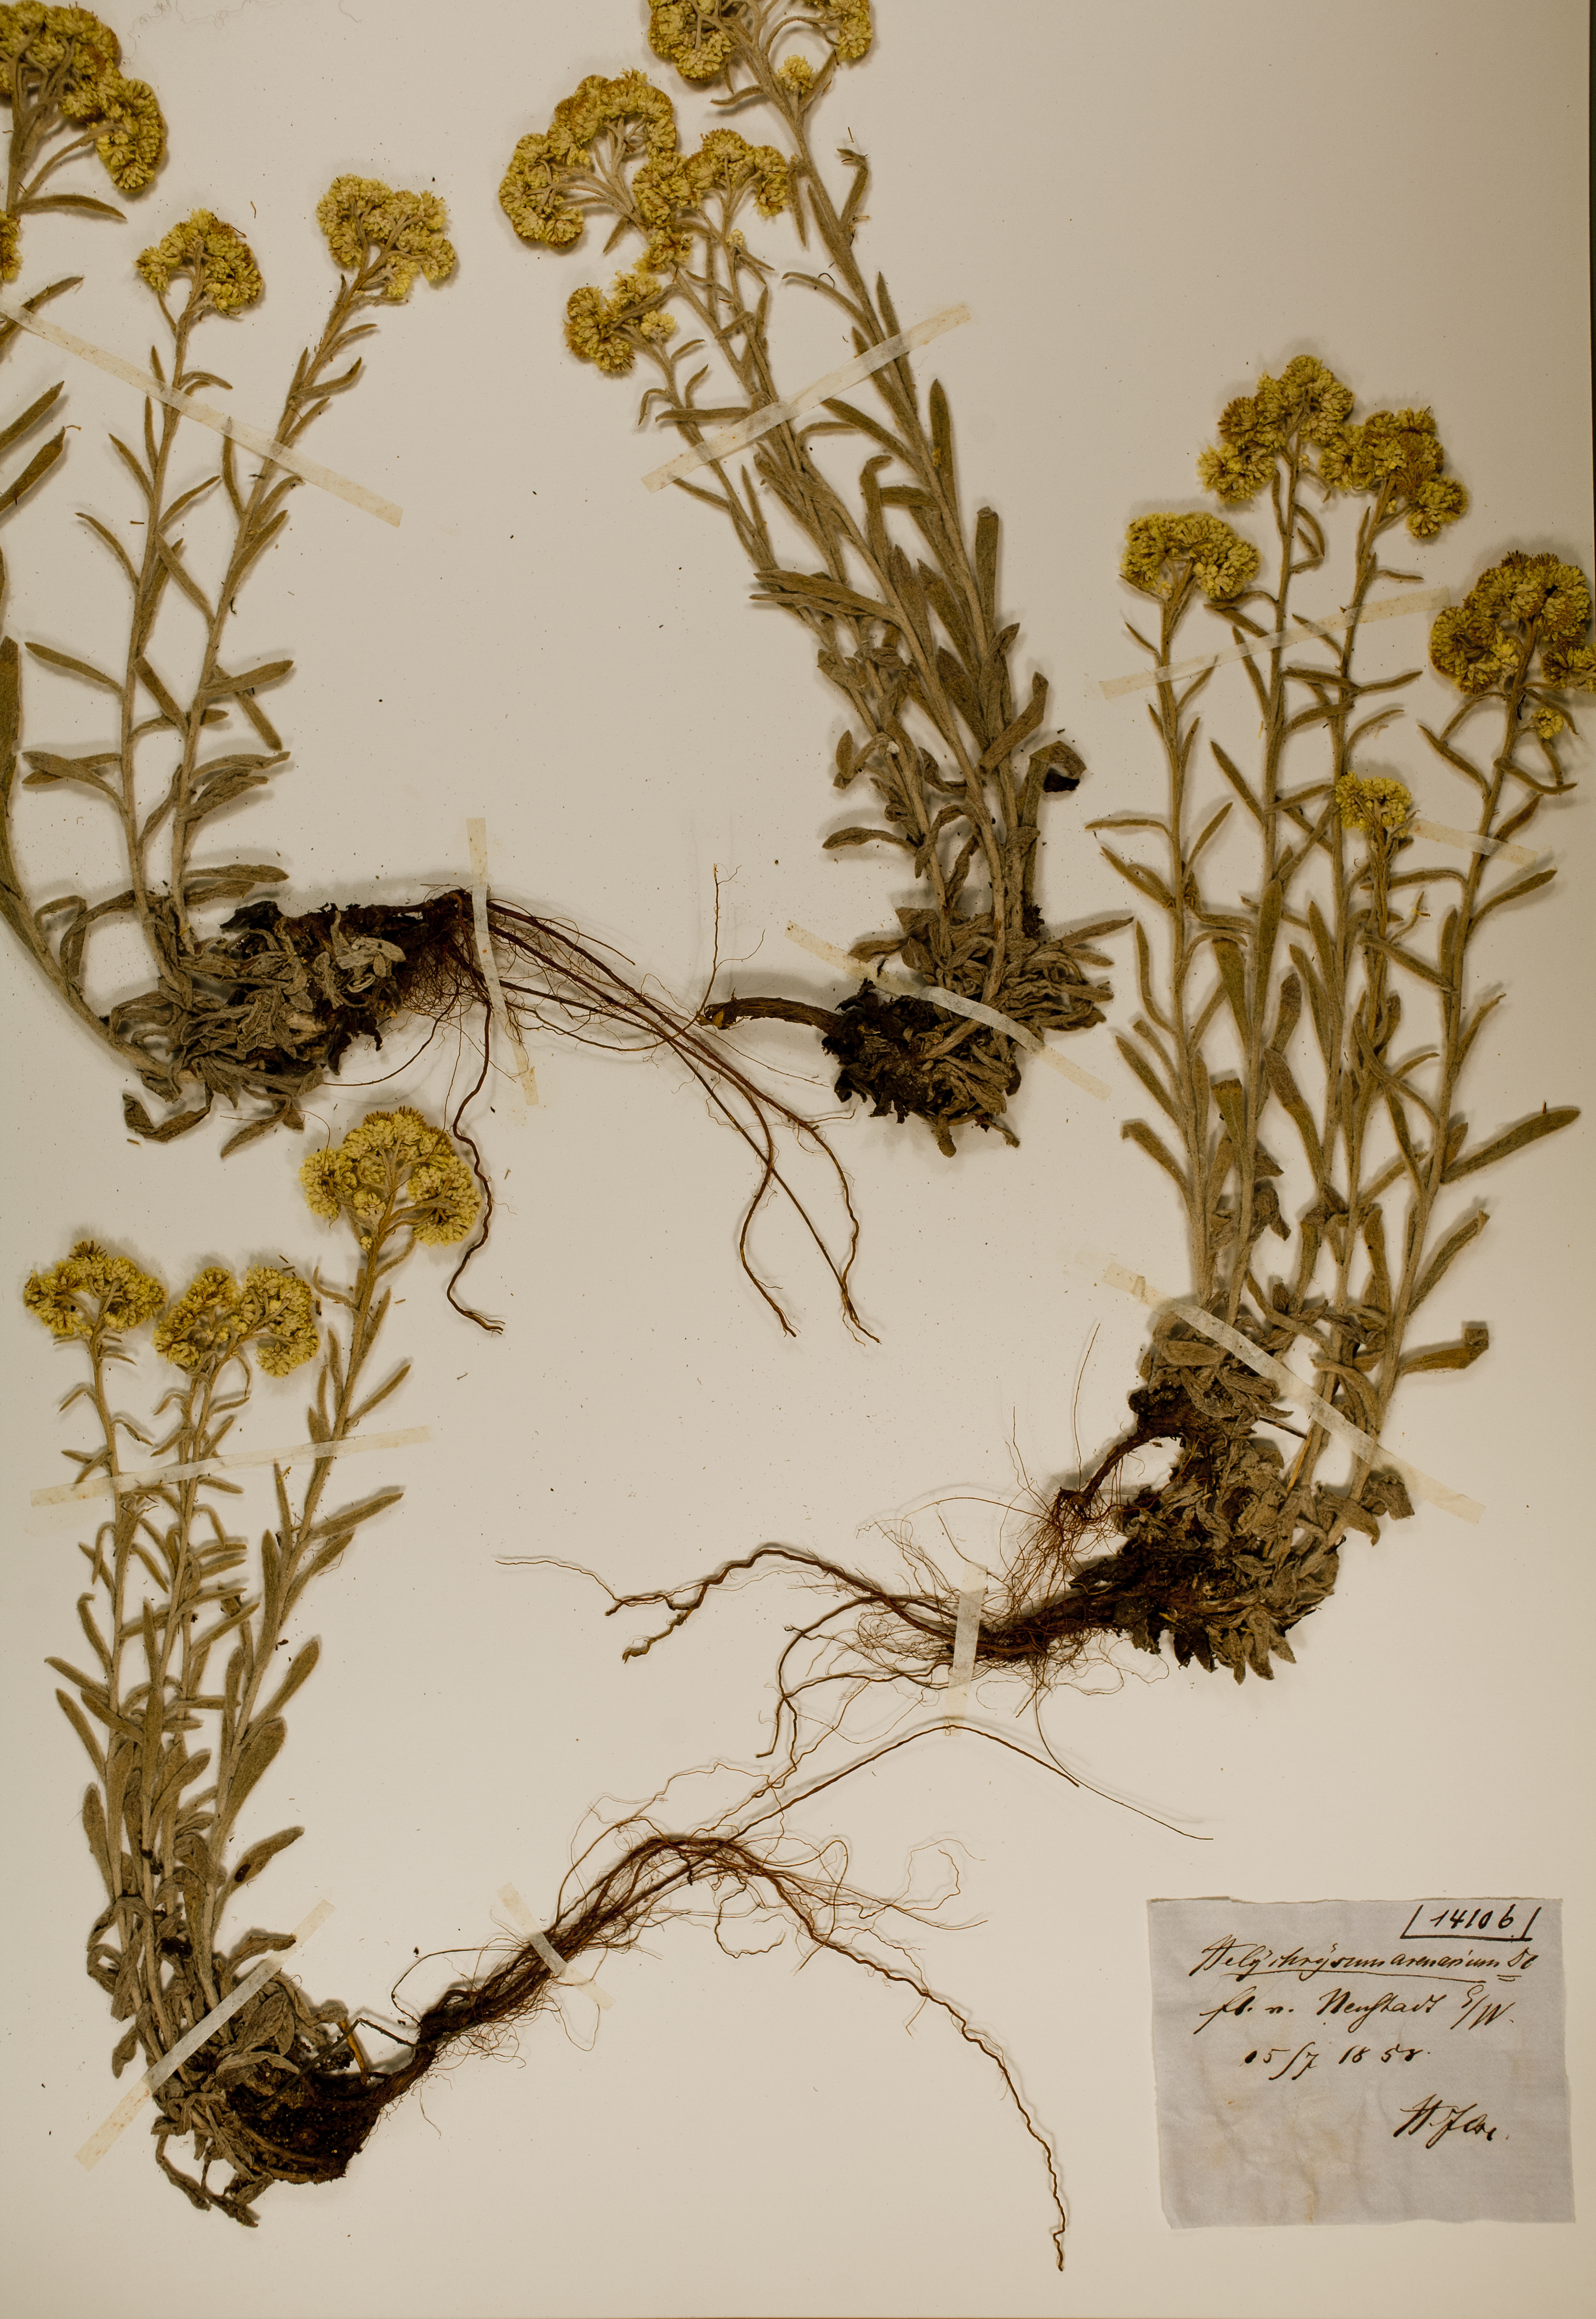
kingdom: Plantae
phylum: Tracheophyta
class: Magnoliopsida
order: Asterales
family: Asteraceae
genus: Helichrysum
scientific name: Helichrysum arenarium
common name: Strawflower
